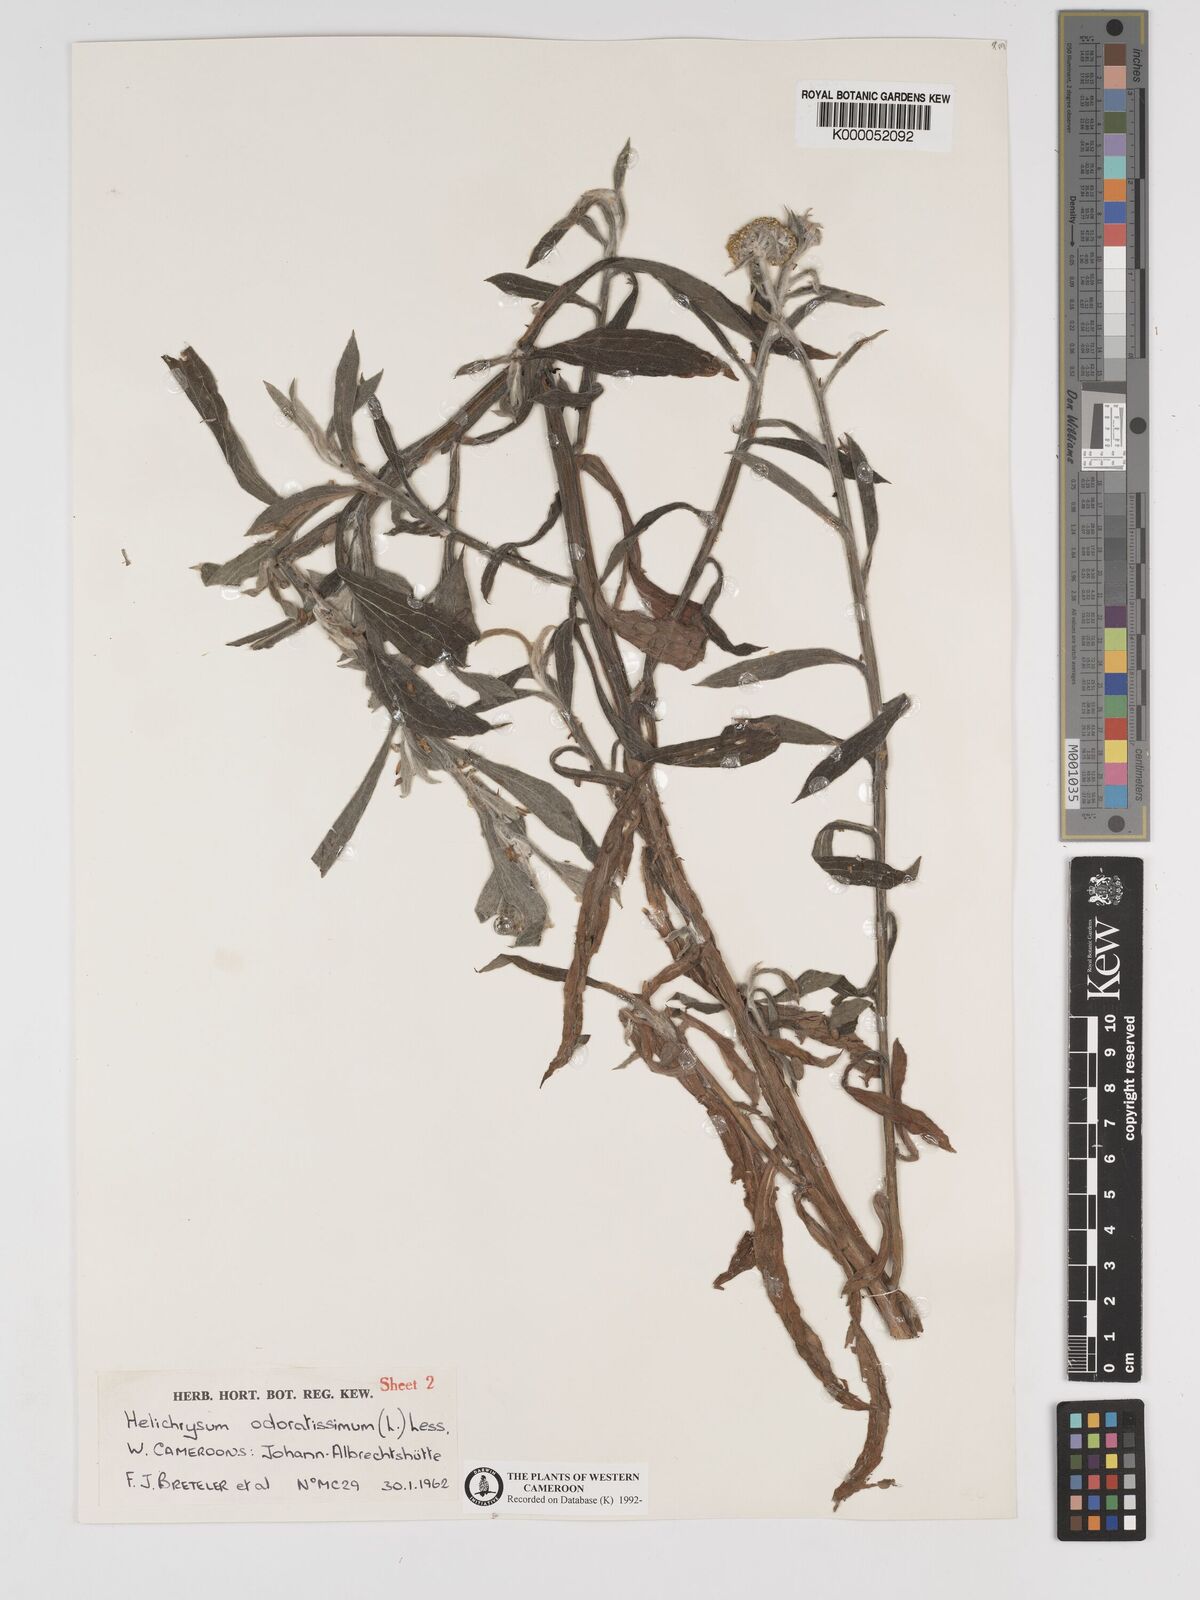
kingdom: Plantae
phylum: Tracheophyta
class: Magnoliopsida
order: Asterales
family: Asteraceae
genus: Helichrysum
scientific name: Helichrysum odoratissimum
